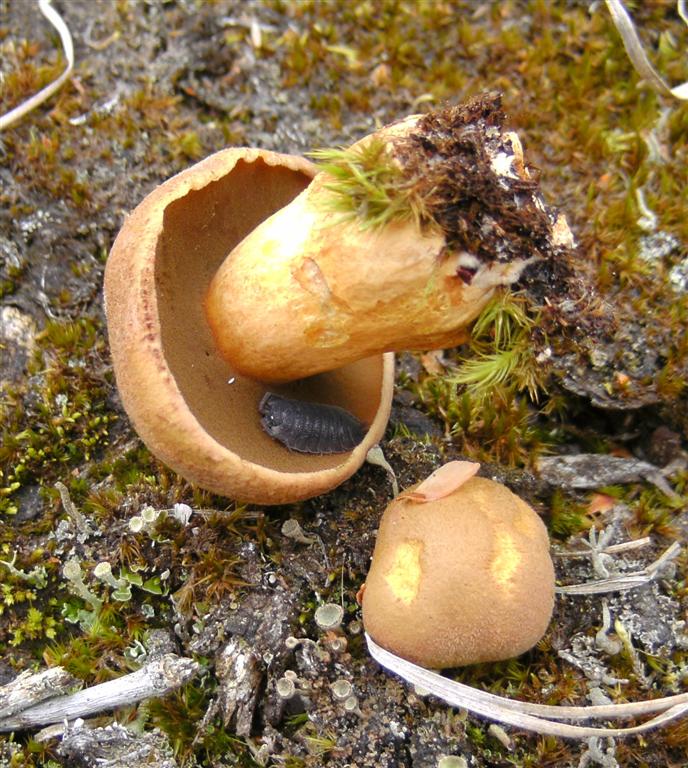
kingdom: Fungi
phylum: Basidiomycota
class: Agaricomycetes
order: Boletales
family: Suillaceae
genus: Suillus
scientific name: Suillus variegatus
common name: broget slimrørhat
